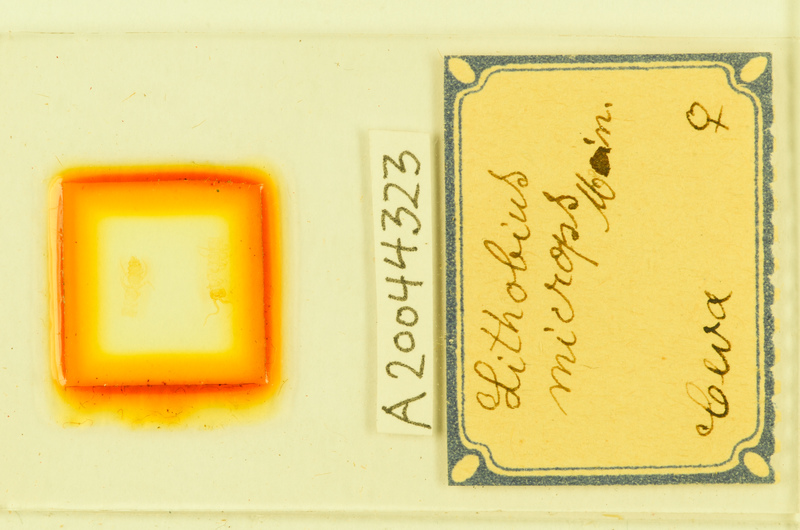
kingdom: Animalia
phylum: Arthropoda
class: Chilopoda
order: Lithobiomorpha
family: Lithobiidae
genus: Lithobius
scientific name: Lithobius microps
